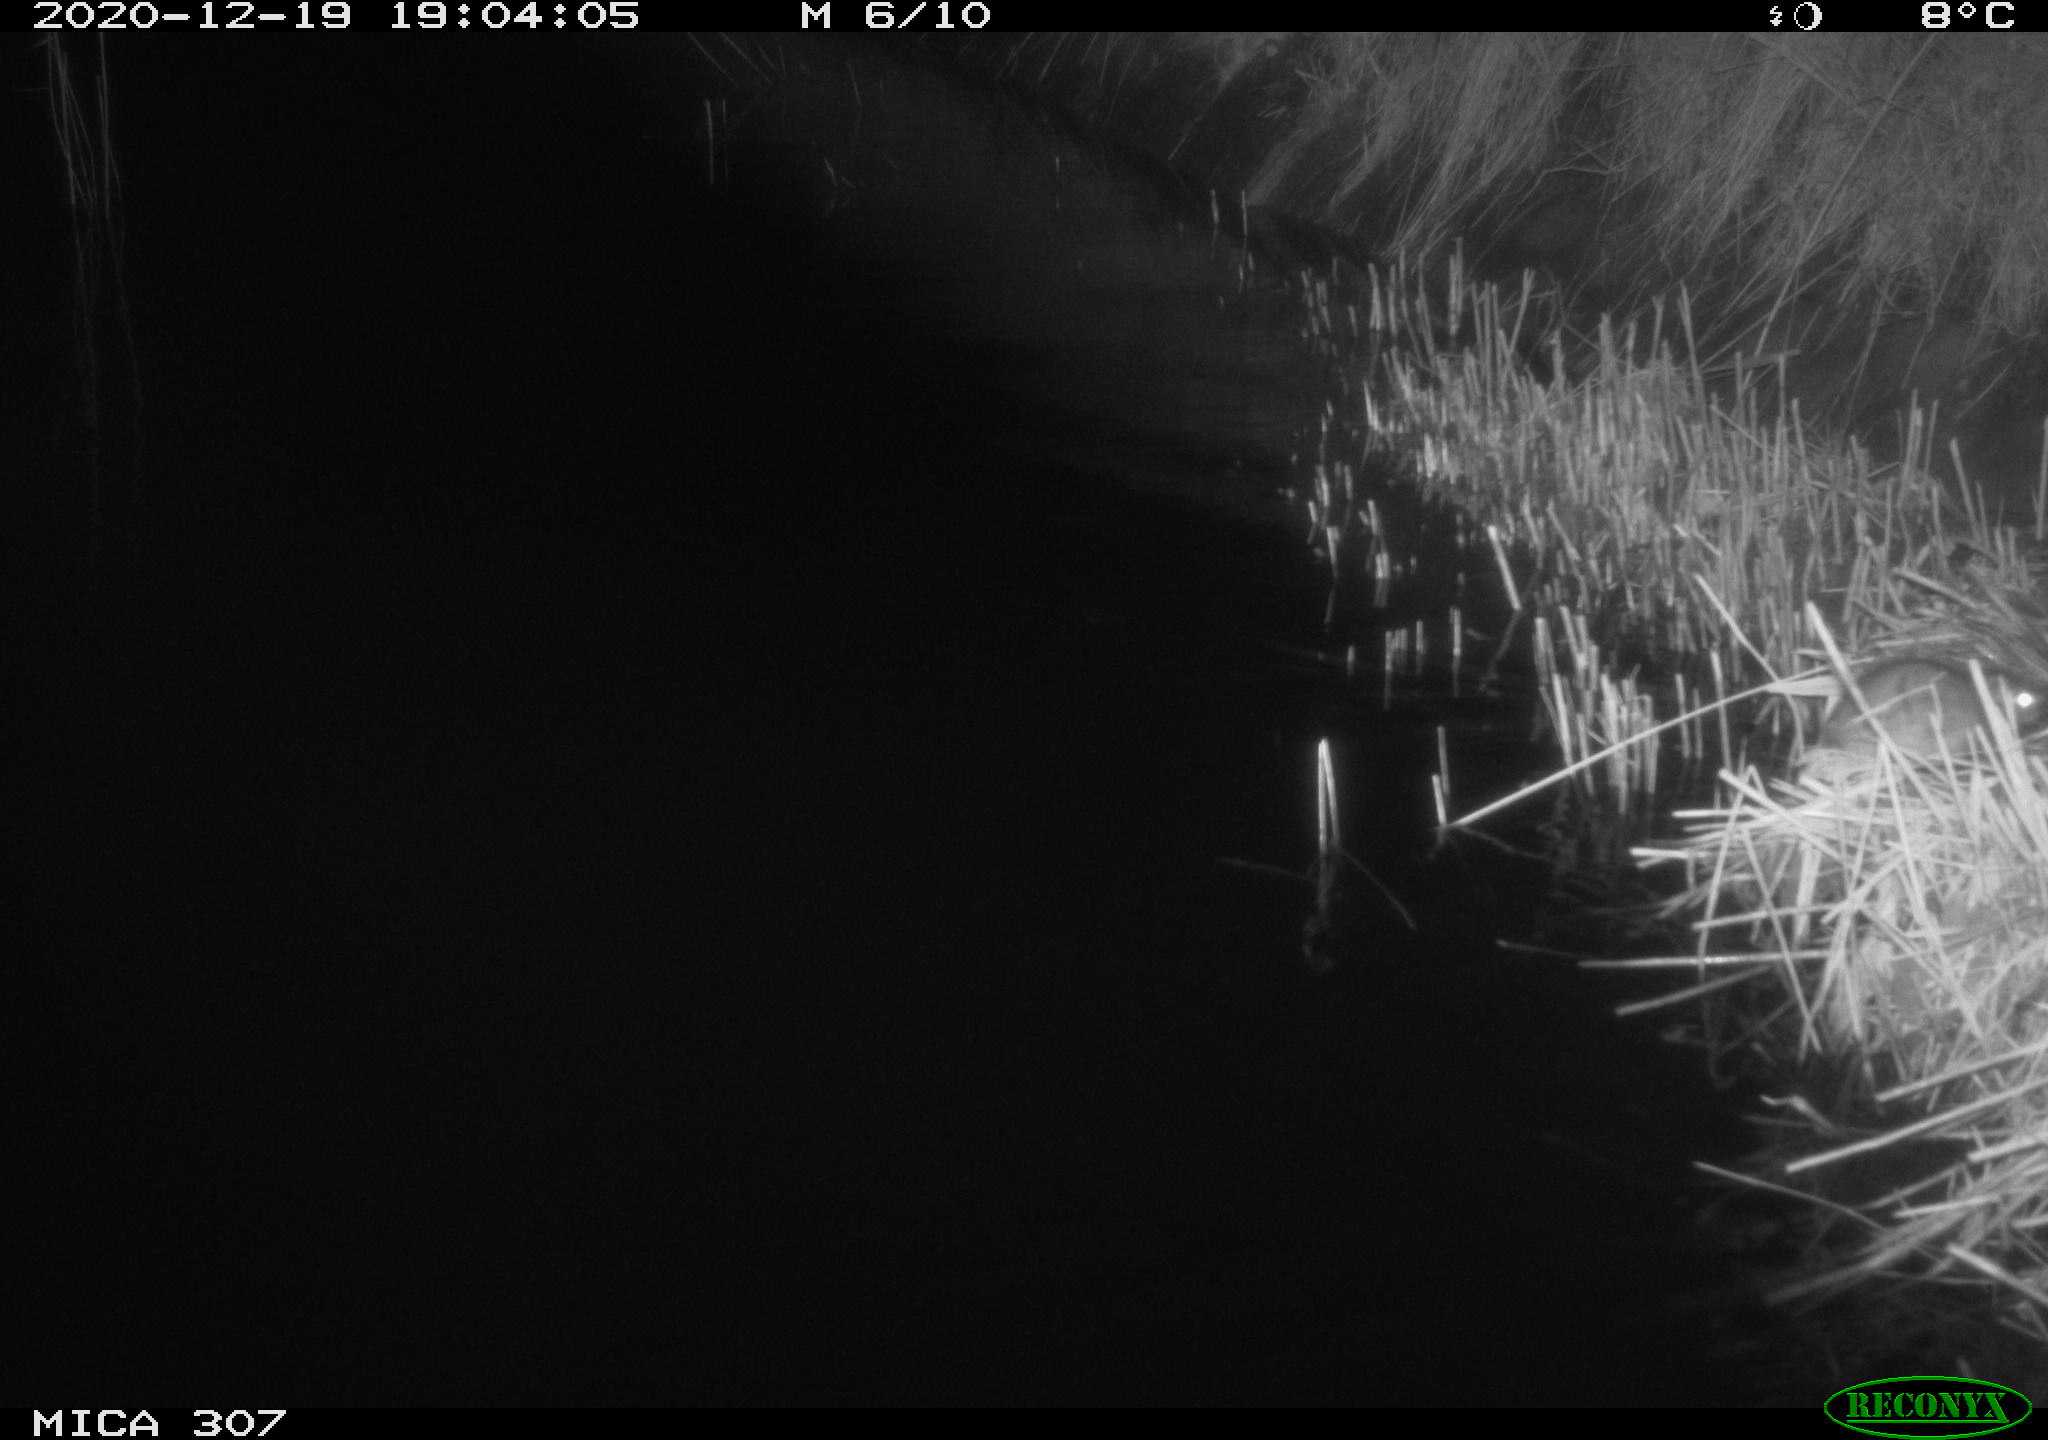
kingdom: Animalia
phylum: Chordata
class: Mammalia
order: Rodentia
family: Muridae
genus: Rattus
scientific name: Rattus norvegicus
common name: Brown rat
